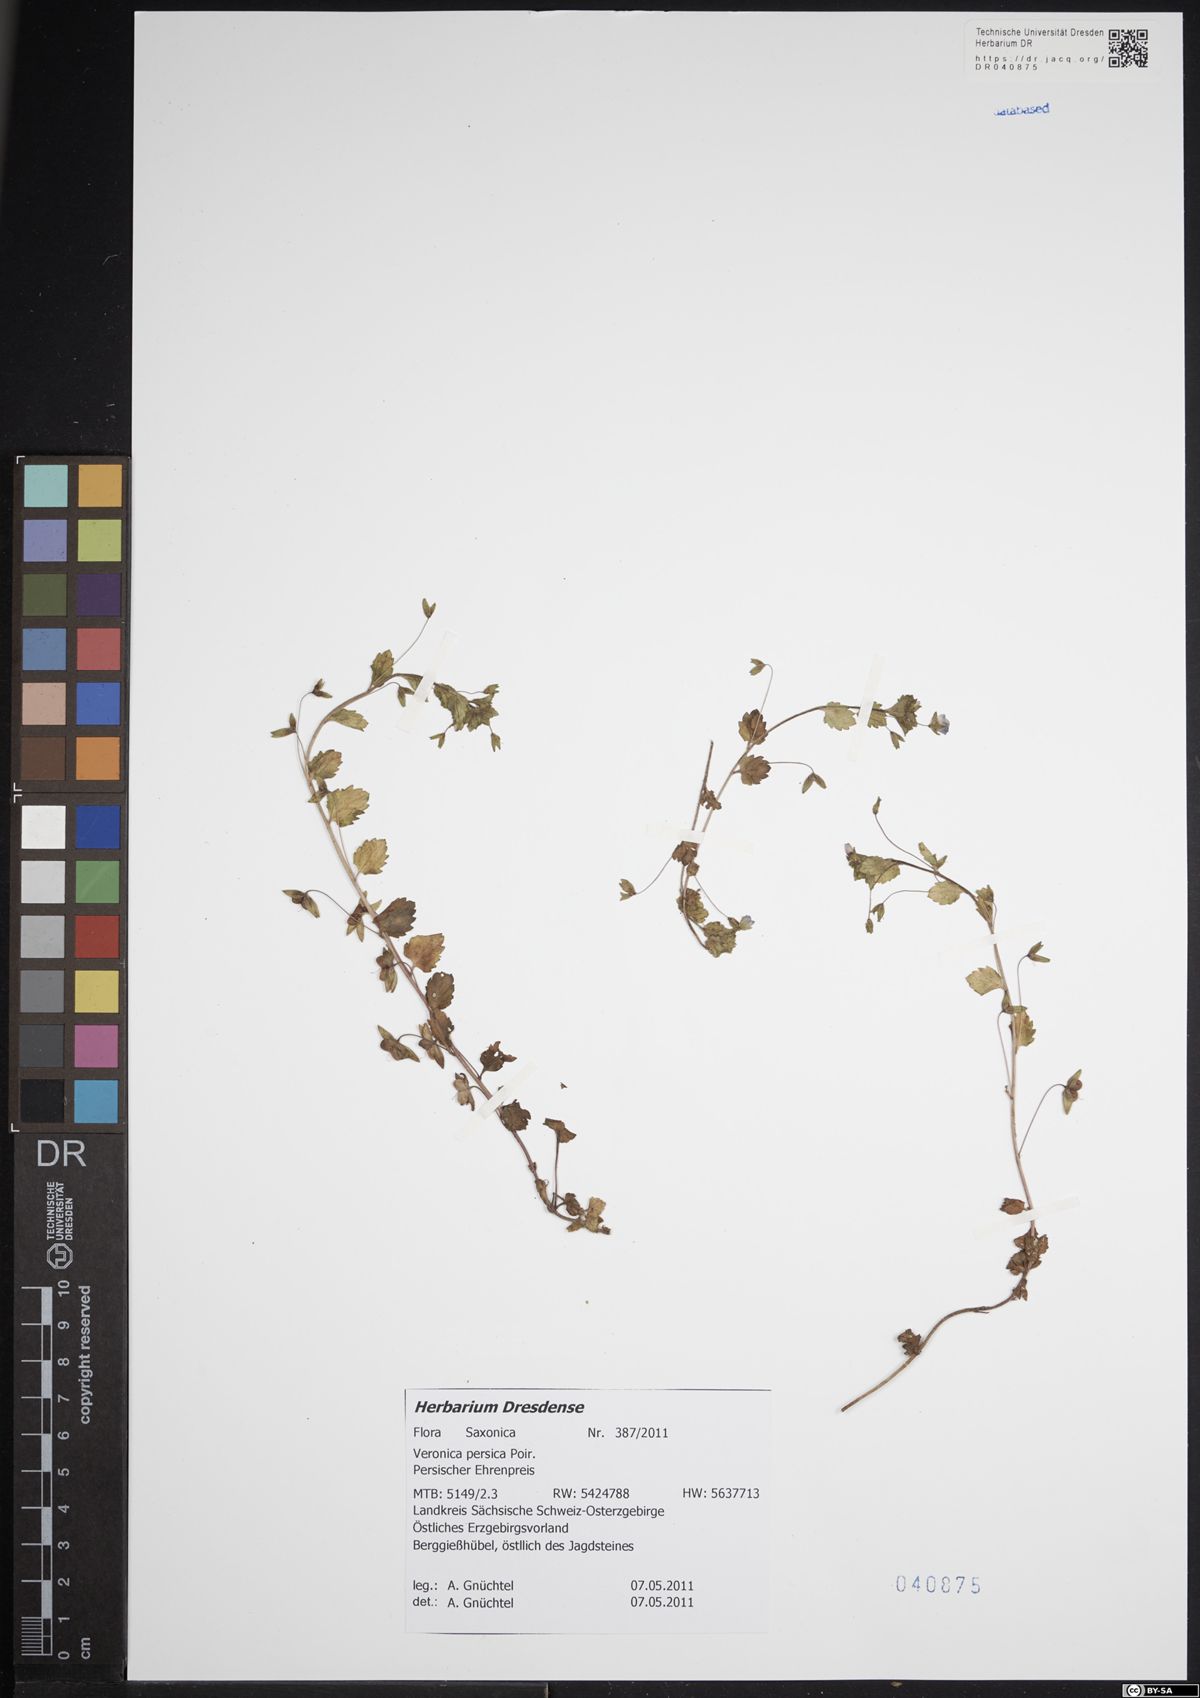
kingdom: Plantae
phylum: Tracheophyta
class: Magnoliopsida
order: Lamiales
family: Plantaginaceae
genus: Veronica
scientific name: Veronica persica
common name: Common field-speedwell
